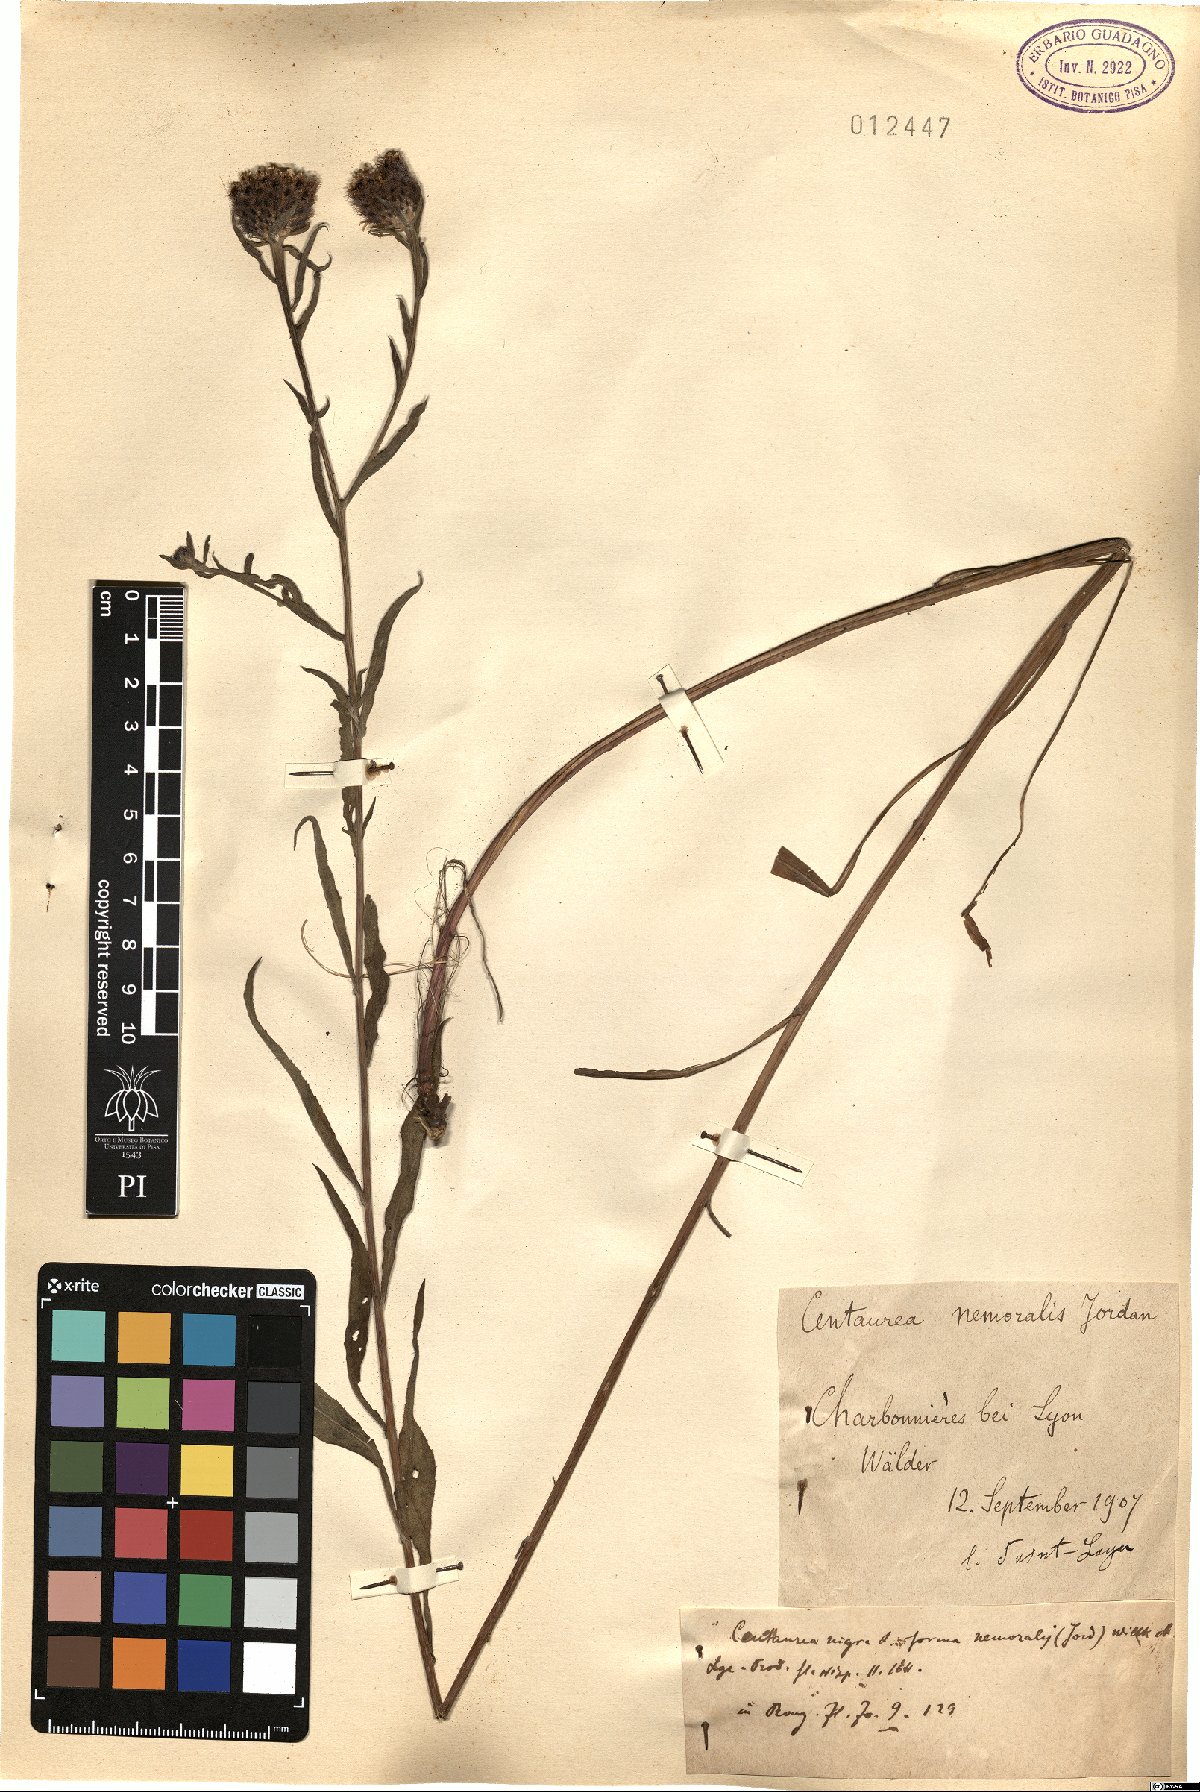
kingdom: Plantae
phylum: Tracheophyta
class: Magnoliopsida
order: Asterales
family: Asteraceae
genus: Centaurea
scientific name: Centaurea nigra
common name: Lesser knapweed
